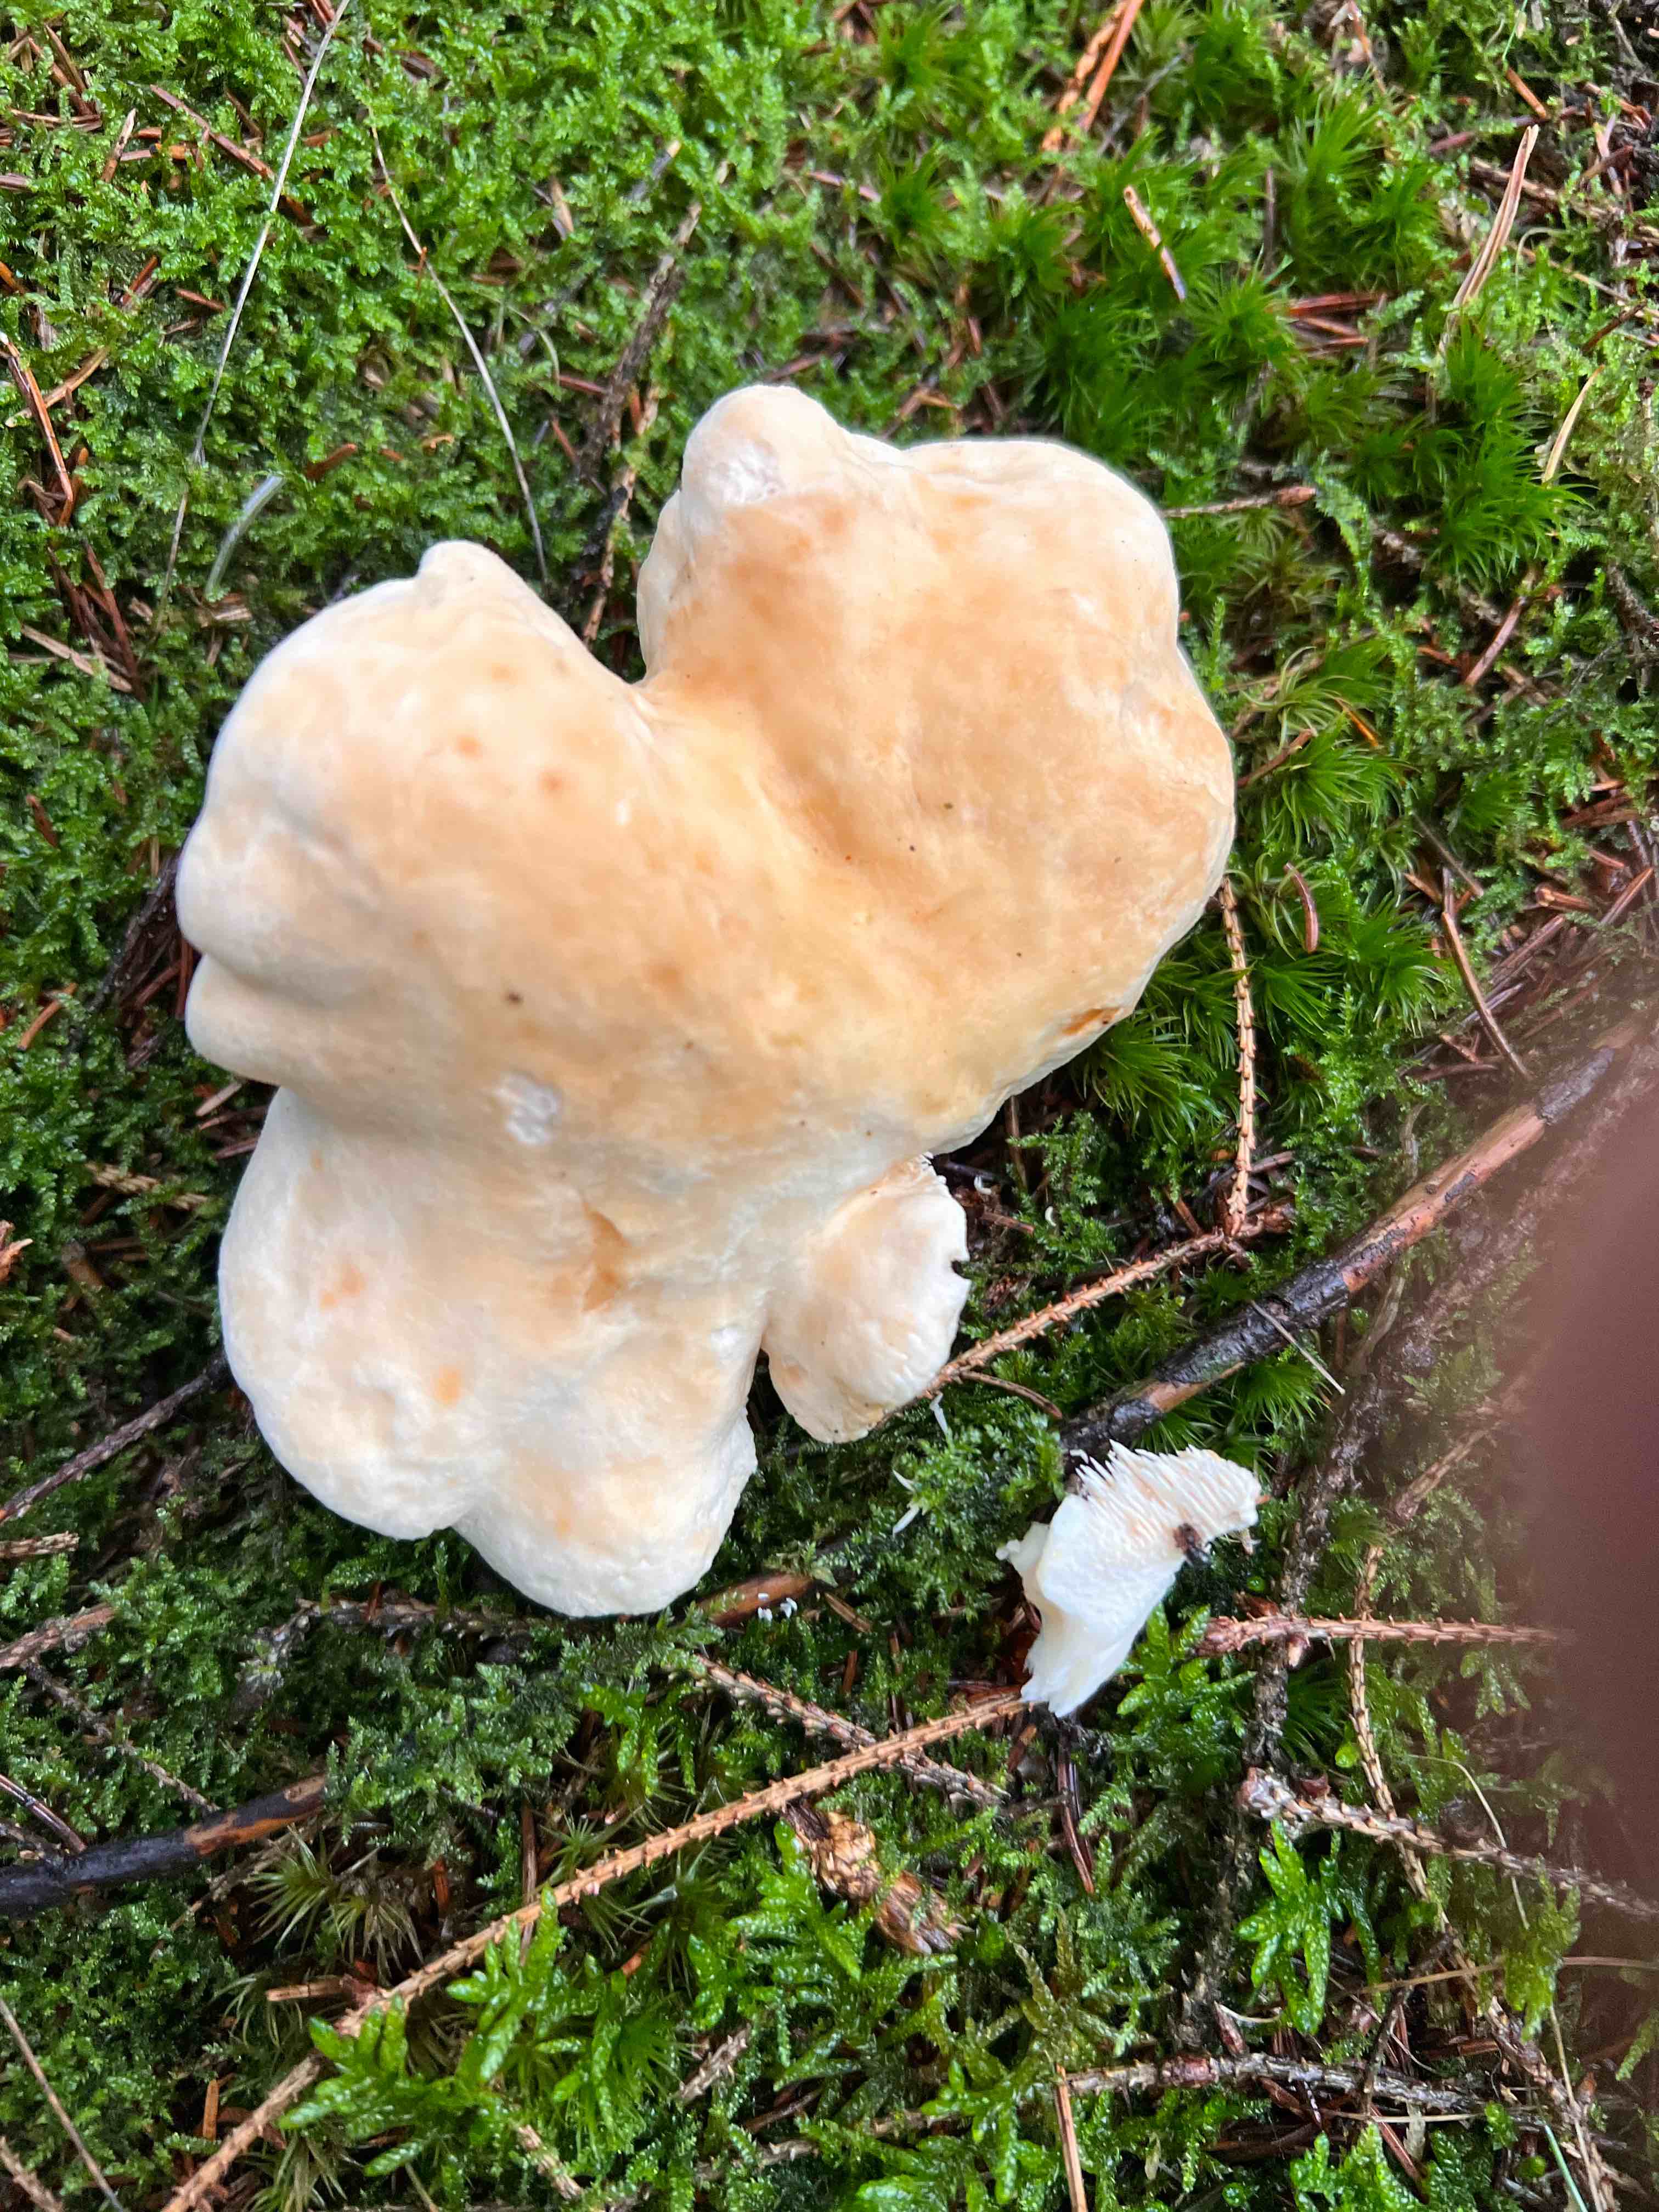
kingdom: Fungi
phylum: Basidiomycota
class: Agaricomycetes
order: Cantharellales
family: Hydnaceae
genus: Hydnum
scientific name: Hydnum repandum
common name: almindelig pigsvamp
